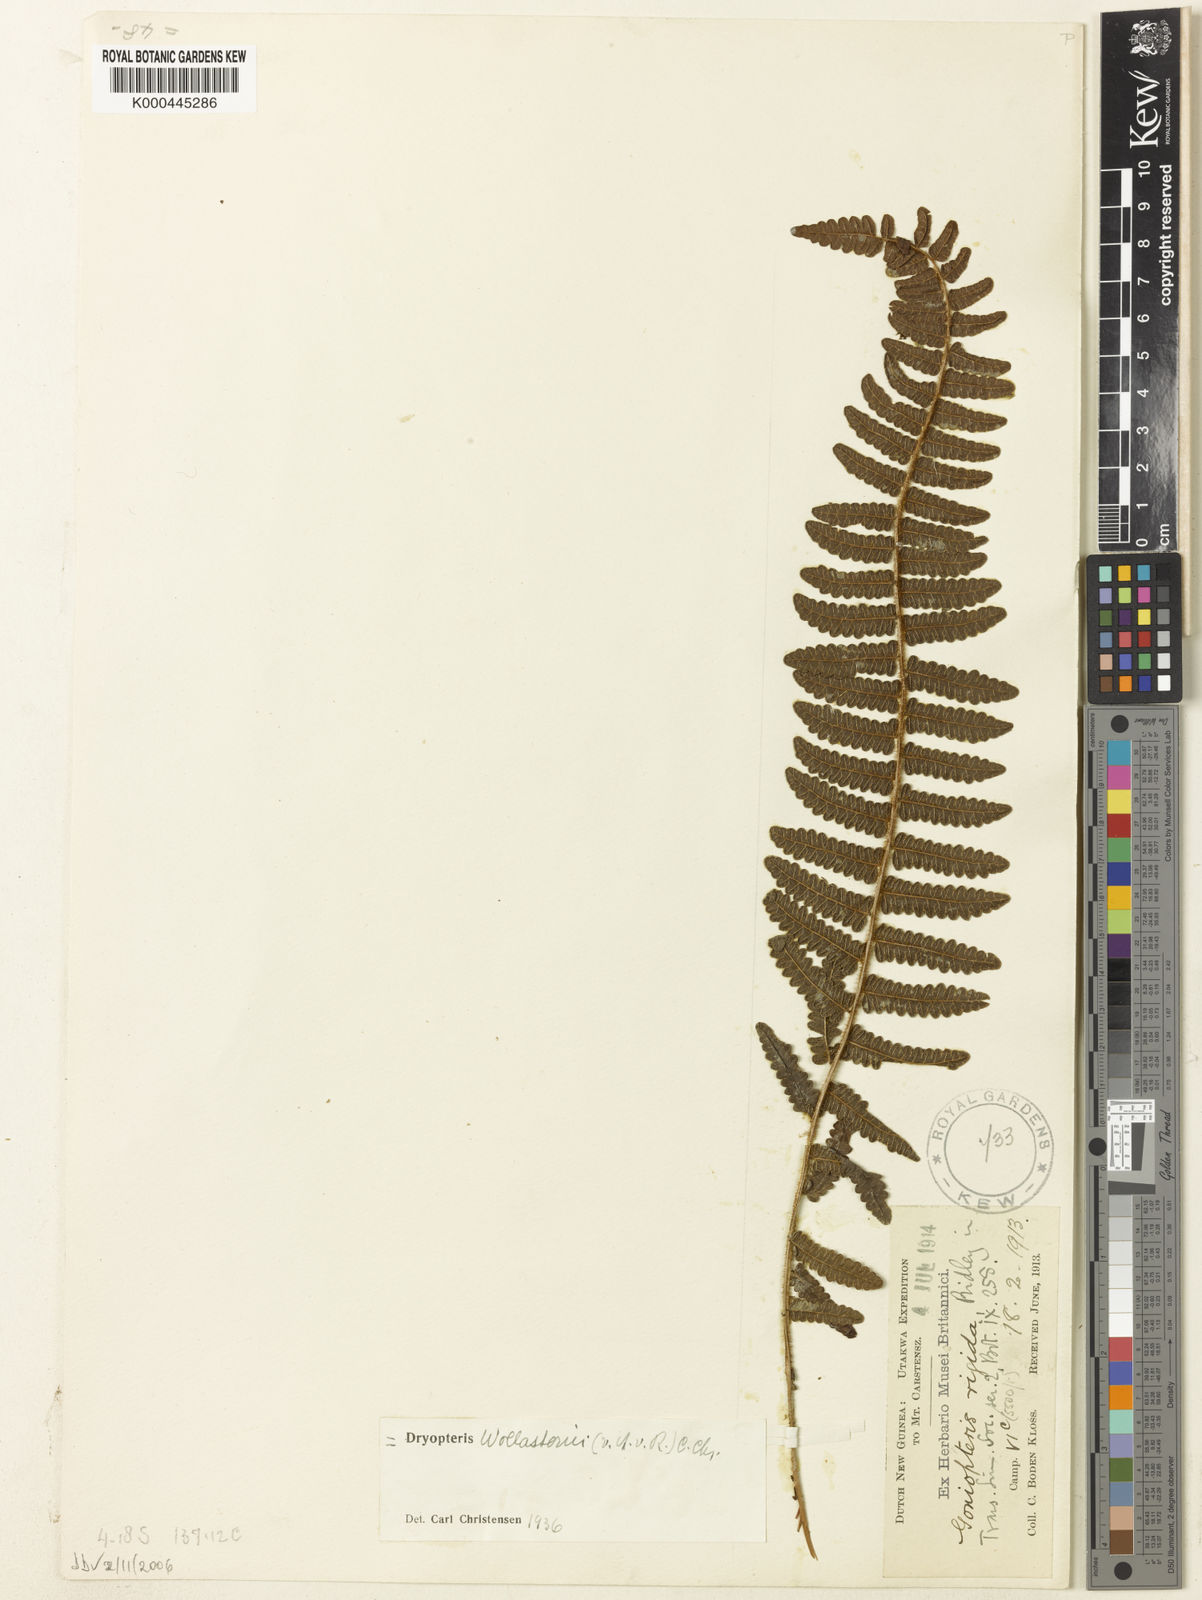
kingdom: Plantae
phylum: Tracheophyta
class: Polypodiopsida
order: Polypodiales
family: Thelypteridaceae
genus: Sphaerostephanos
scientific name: Sphaerostephanos rigidus
